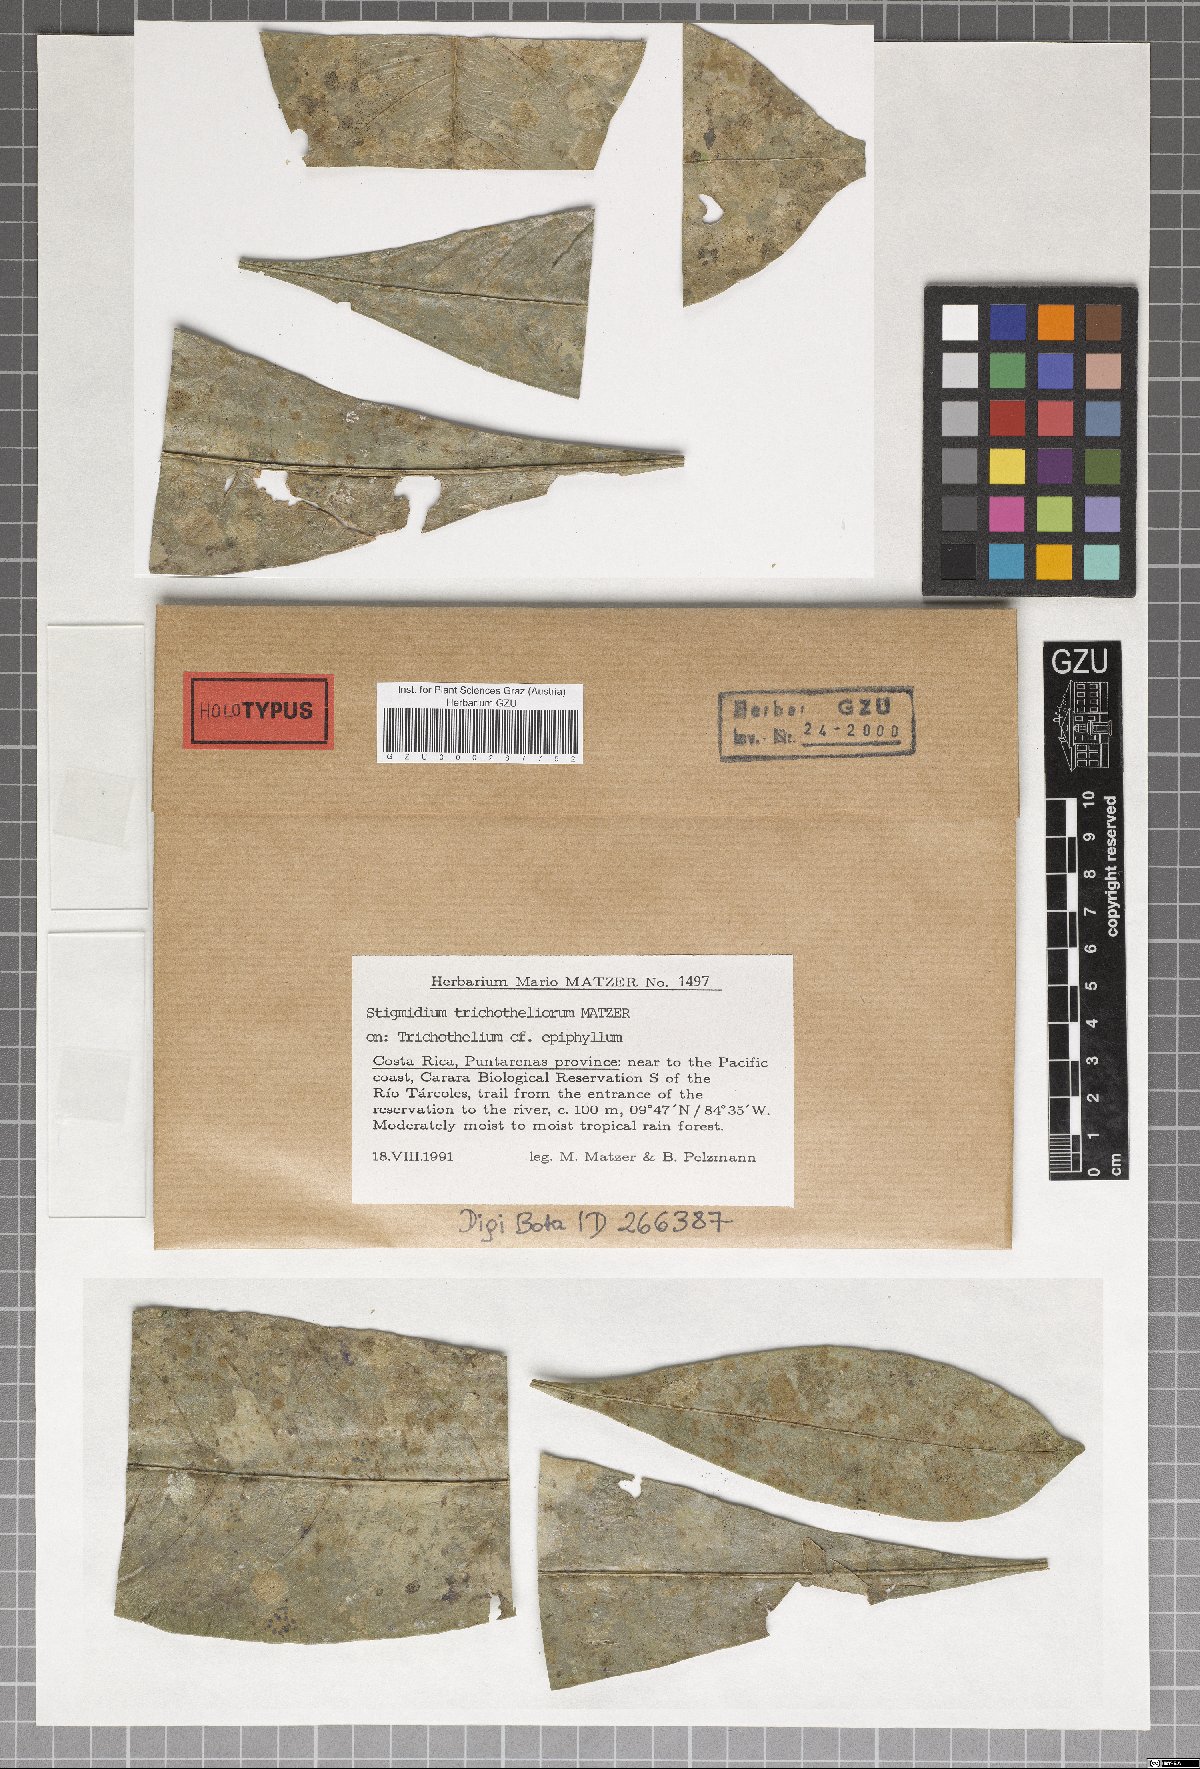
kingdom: Fungi
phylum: Ascomycota
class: Dothideomycetes
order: Mycosphaerellales
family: Mycosphaerellaceae
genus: Stigmidium
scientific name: Stigmidium trichotheliorum
